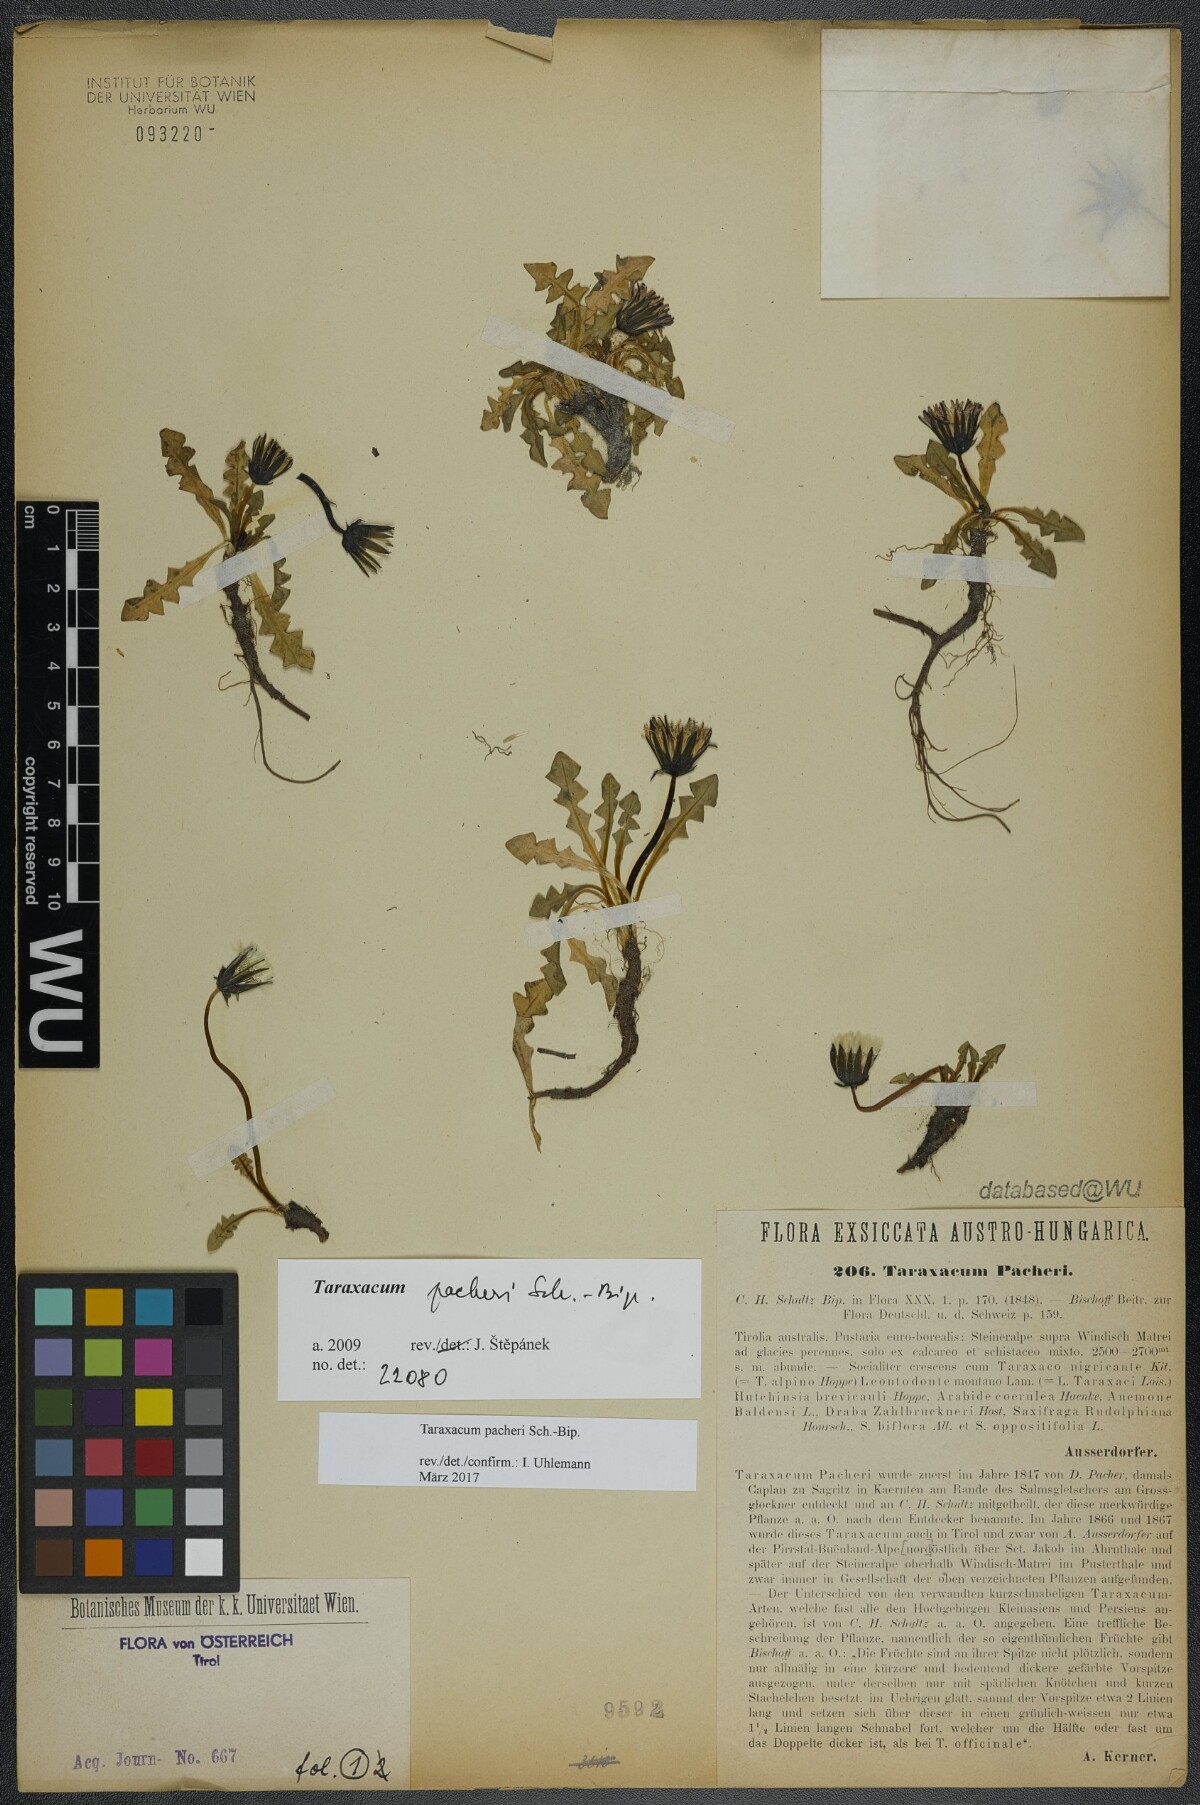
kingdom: Plantae
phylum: Tracheophyta
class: Magnoliopsida
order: Asterales
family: Asteraceae
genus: Taraxacum
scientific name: Taraxacum pacheri
